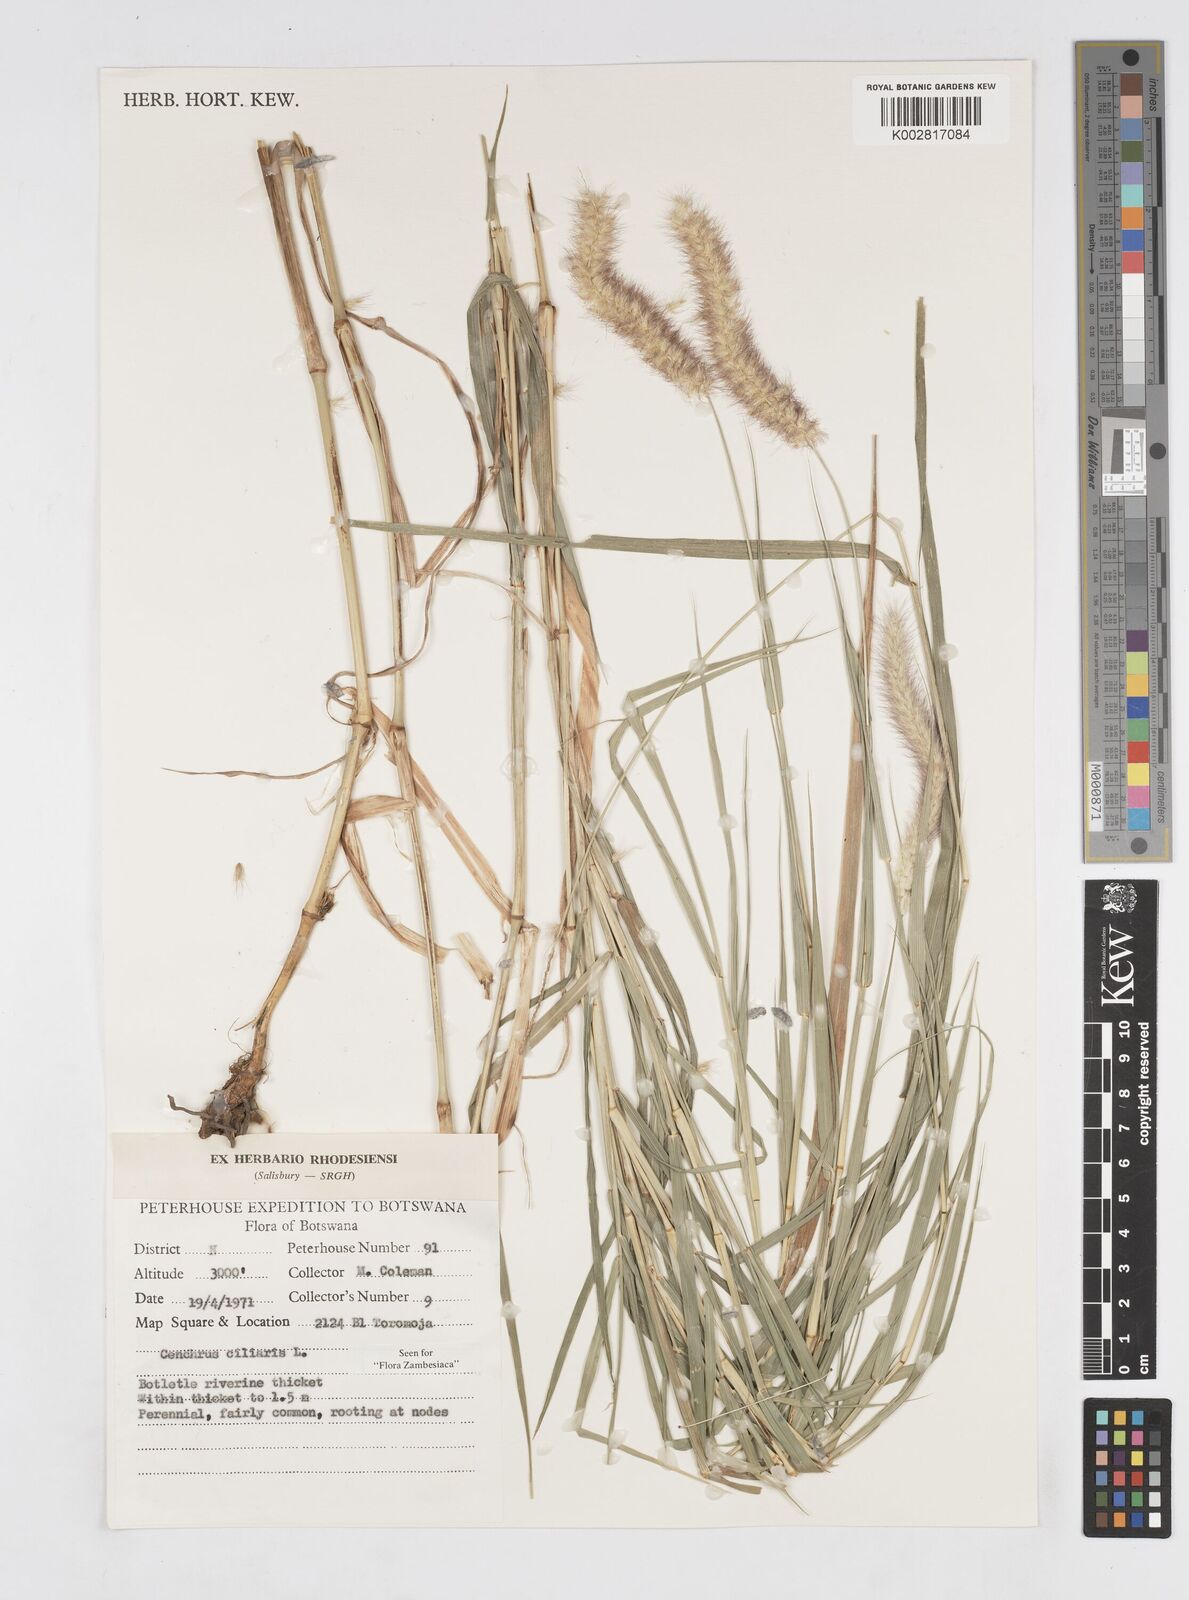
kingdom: Plantae
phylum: Tracheophyta
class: Liliopsida
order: Poales
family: Poaceae
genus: Cenchrus
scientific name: Cenchrus ciliaris
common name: Buffelgrass
